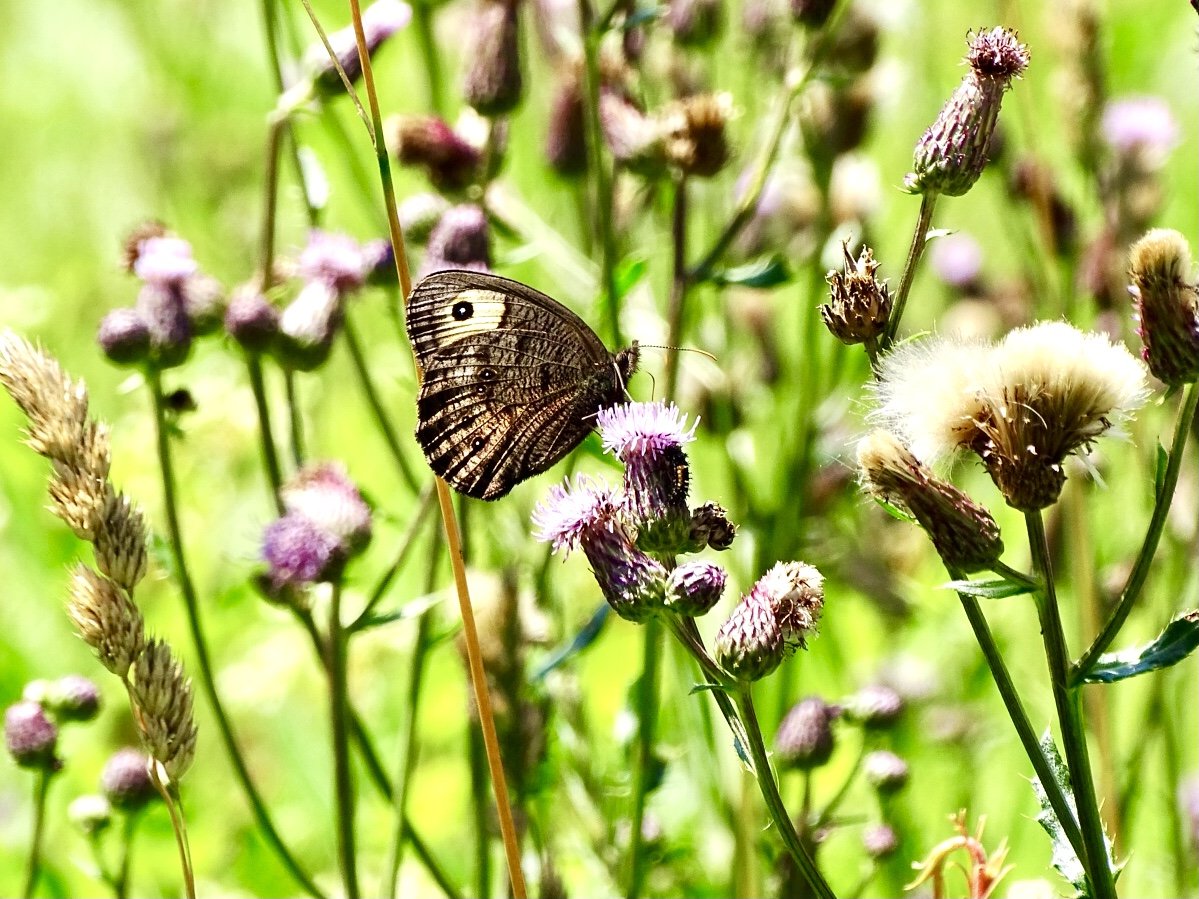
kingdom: Animalia
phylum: Arthropoda
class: Insecta
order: Lepidoptera
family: Nymphalidae
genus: Cercyonis
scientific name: Cercyonis pegala
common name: Common Wood-Nymph
